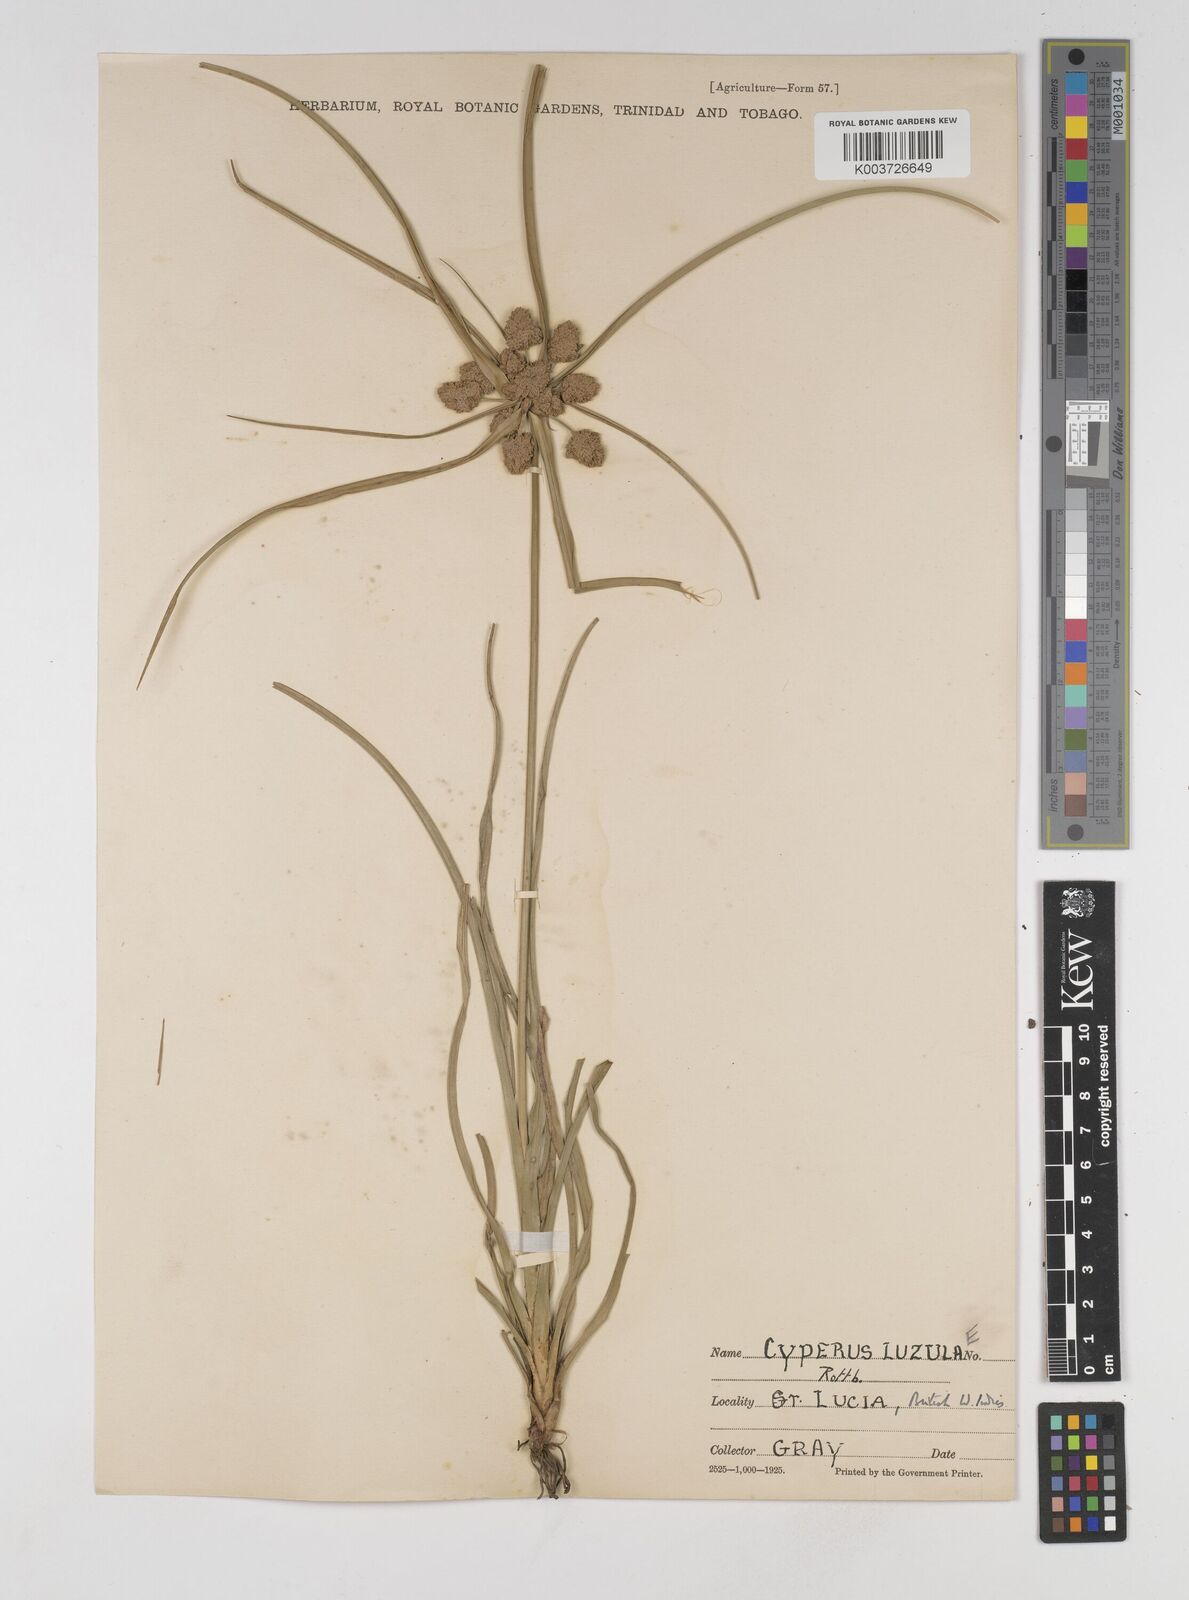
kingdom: Plantae
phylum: Tracheophyta
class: Liliopsida
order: Poales
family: Cyperaceae
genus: Cyperus
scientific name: Cyperus luzulae
